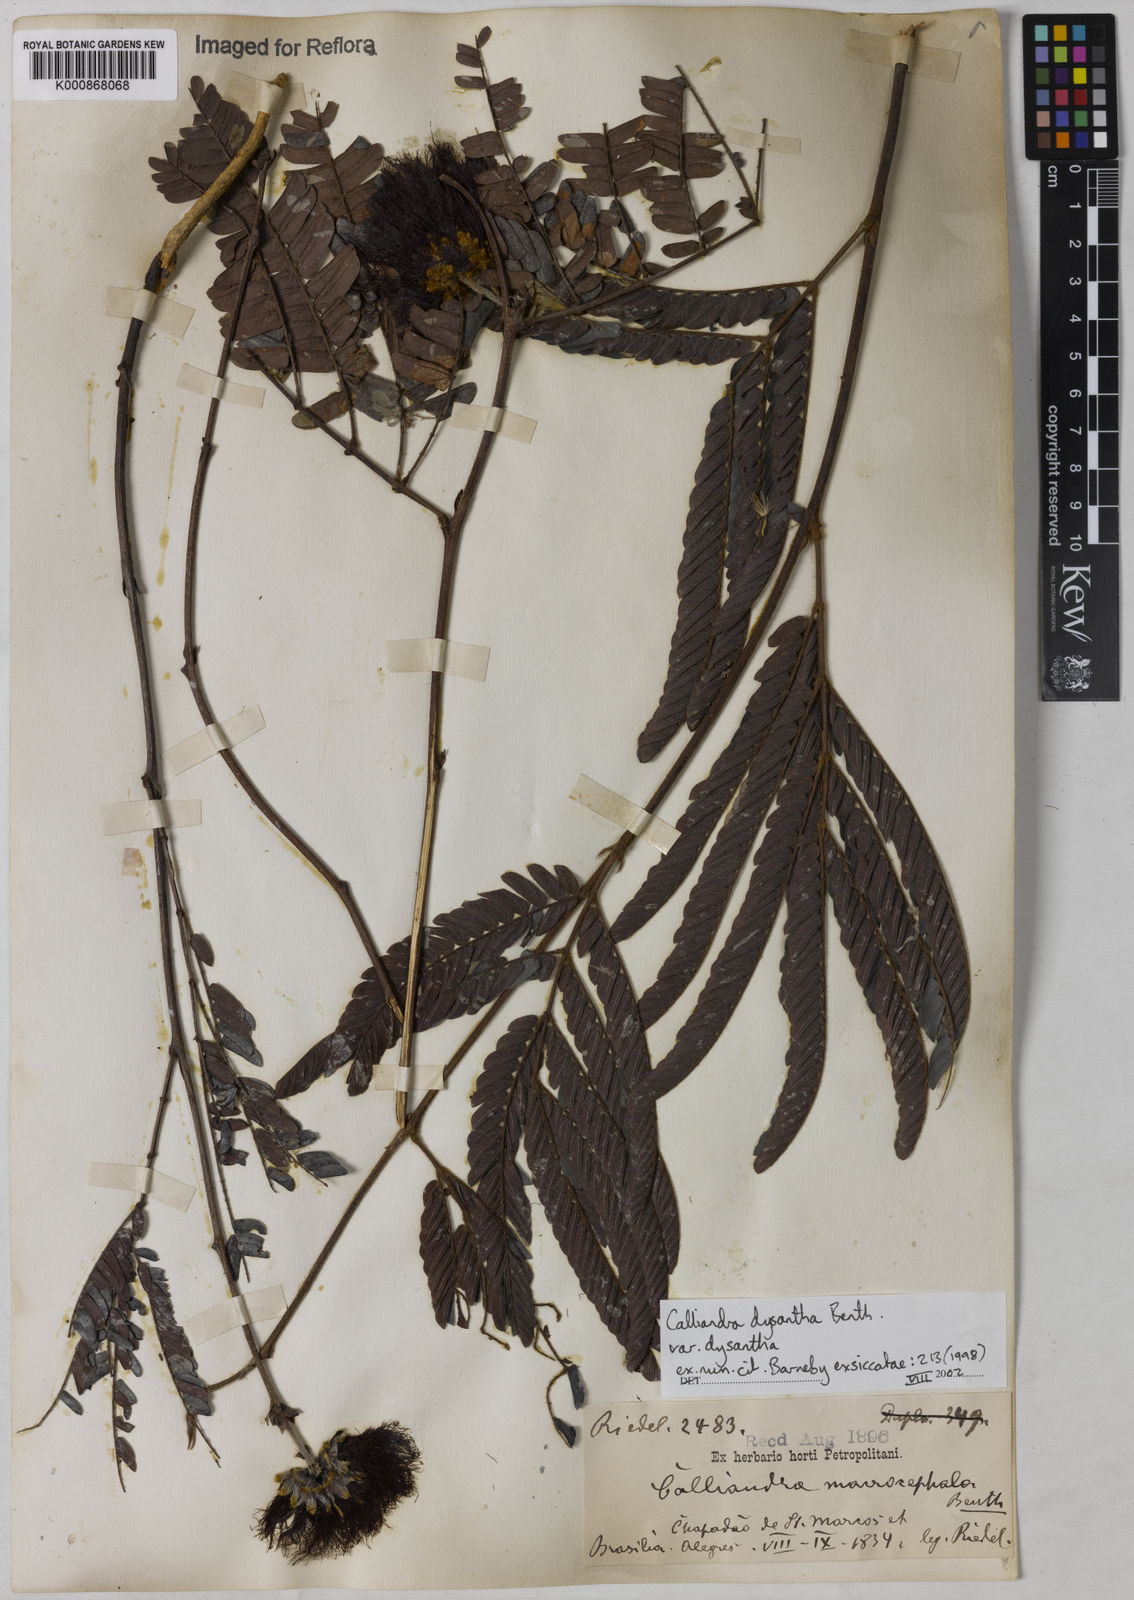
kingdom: Plantae
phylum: Tracheophyta
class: Magnoliopsida
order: Fabales
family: Fabaceae
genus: Calliandra
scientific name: Calliandra dysantha
